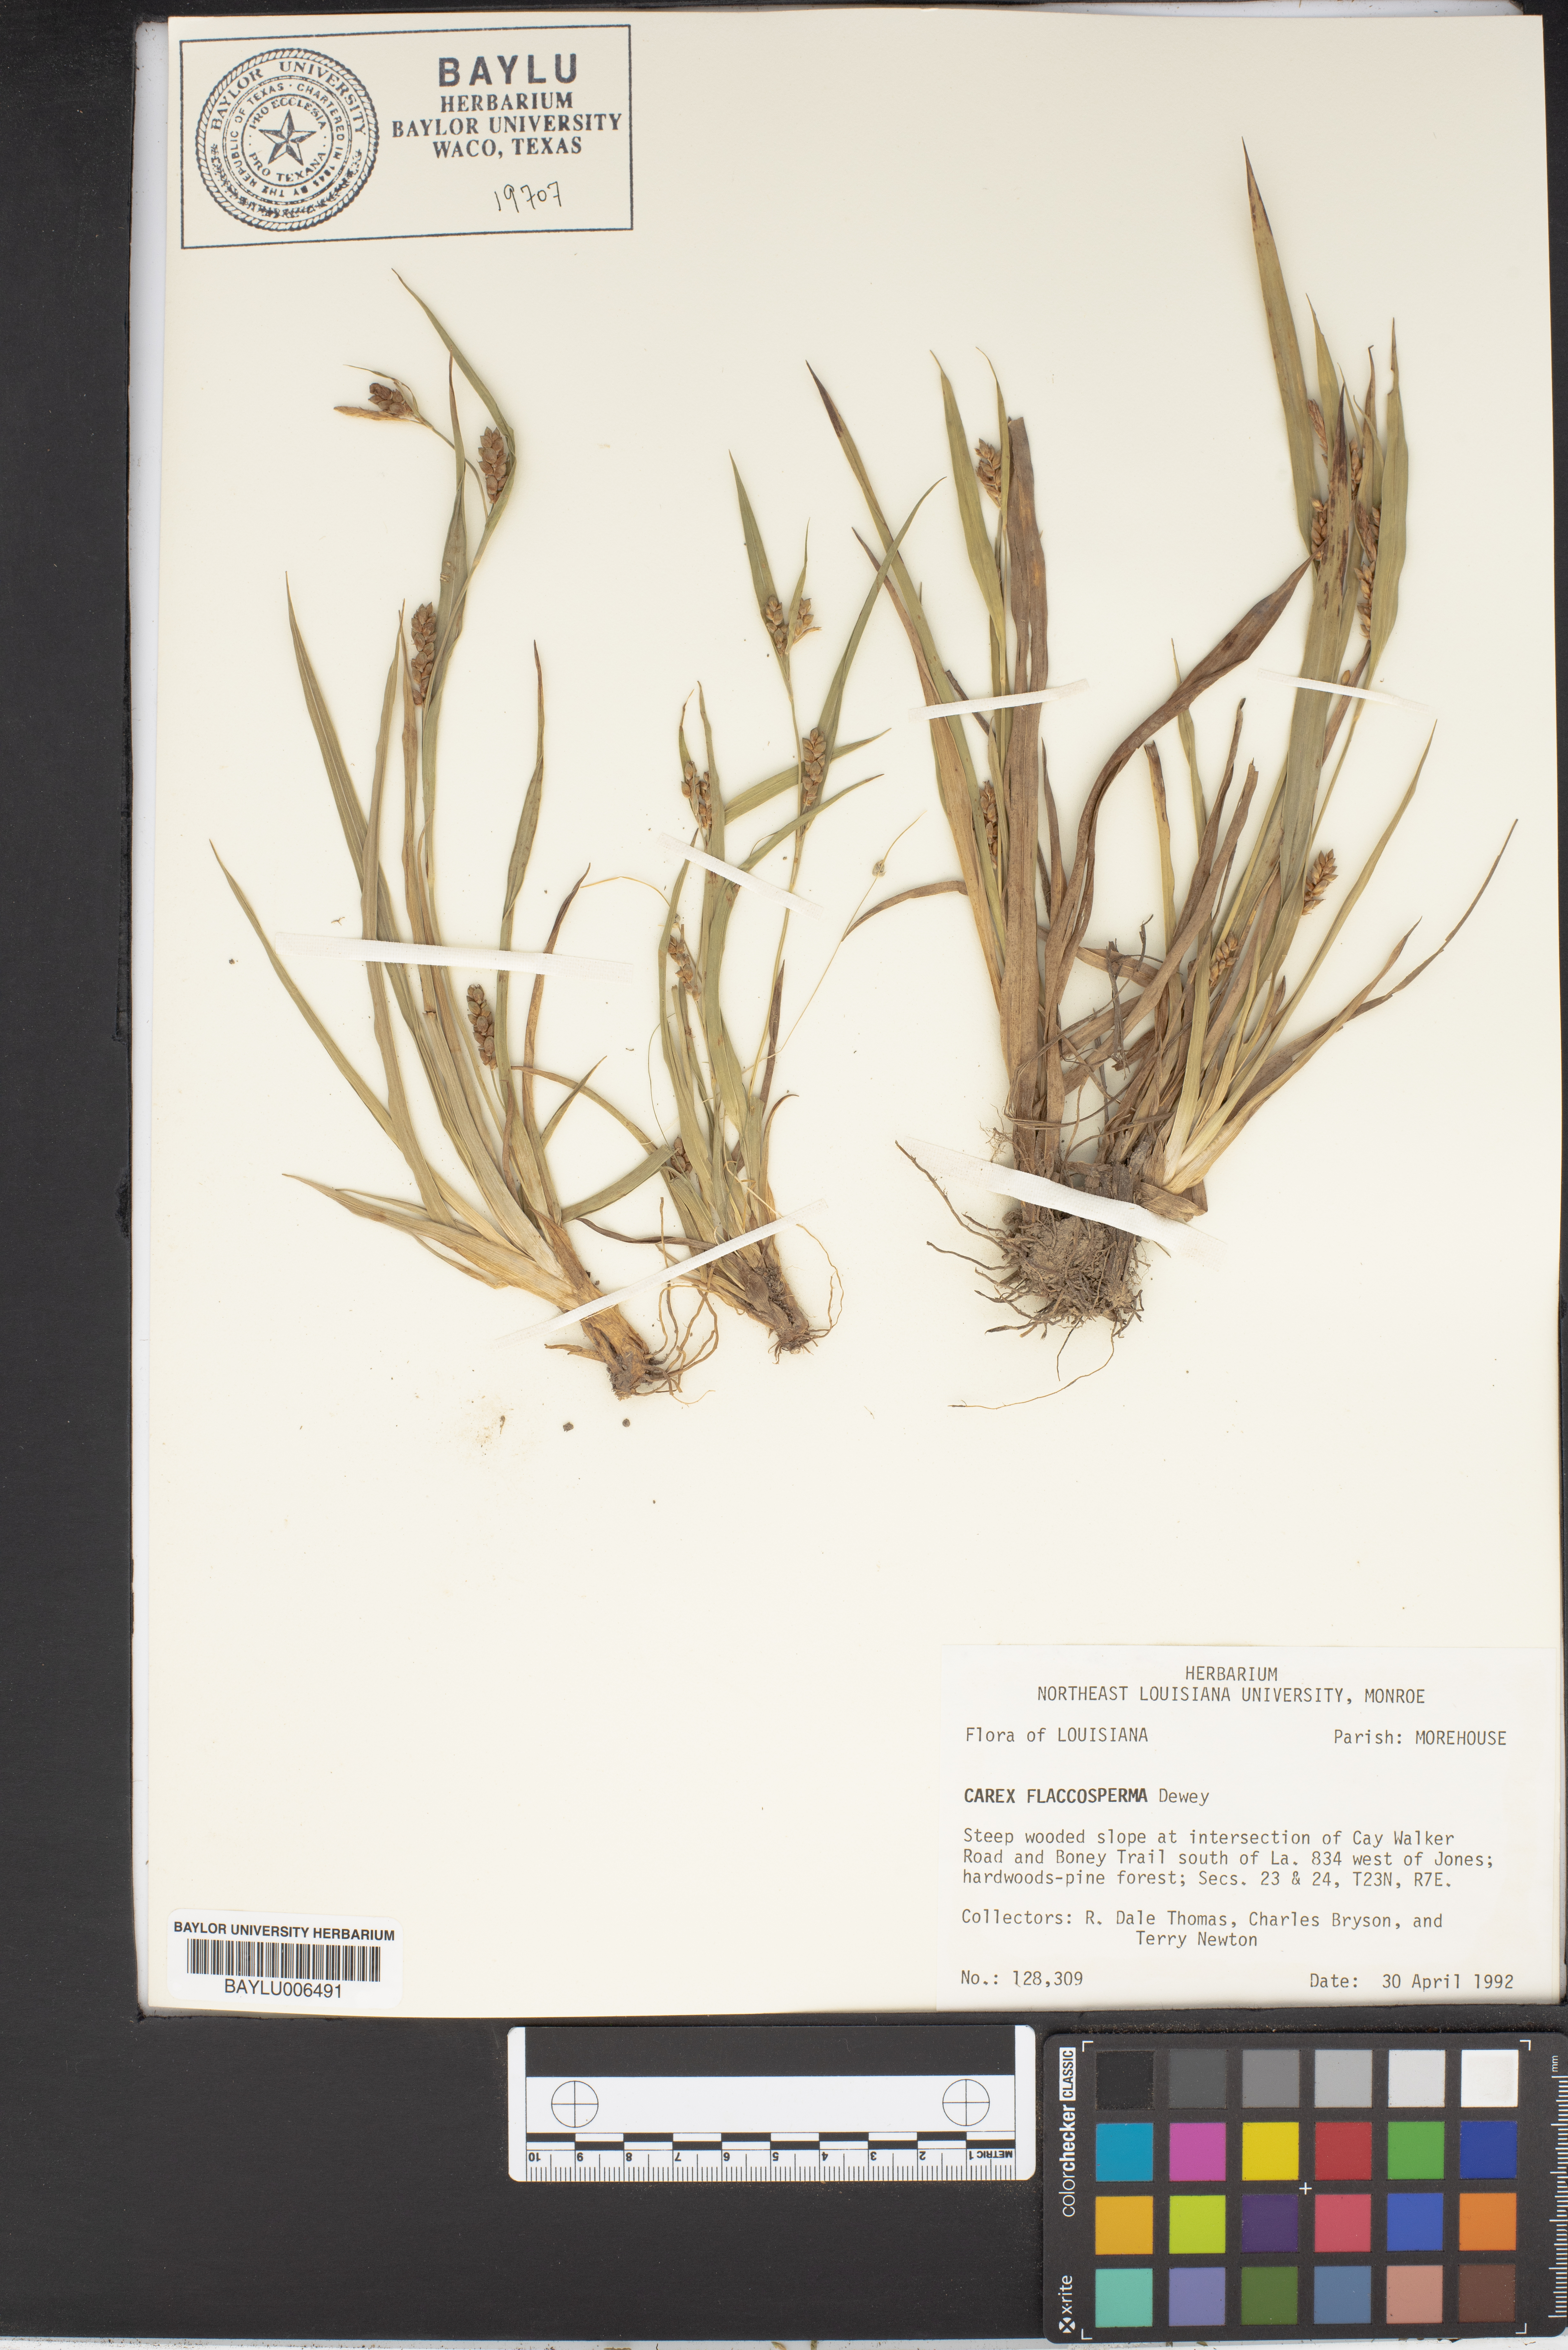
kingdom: Plantae
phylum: Tracheophyta
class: Liliopsida
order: Poales
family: Cyperaceae
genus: Carex
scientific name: Carex flaccosperma
